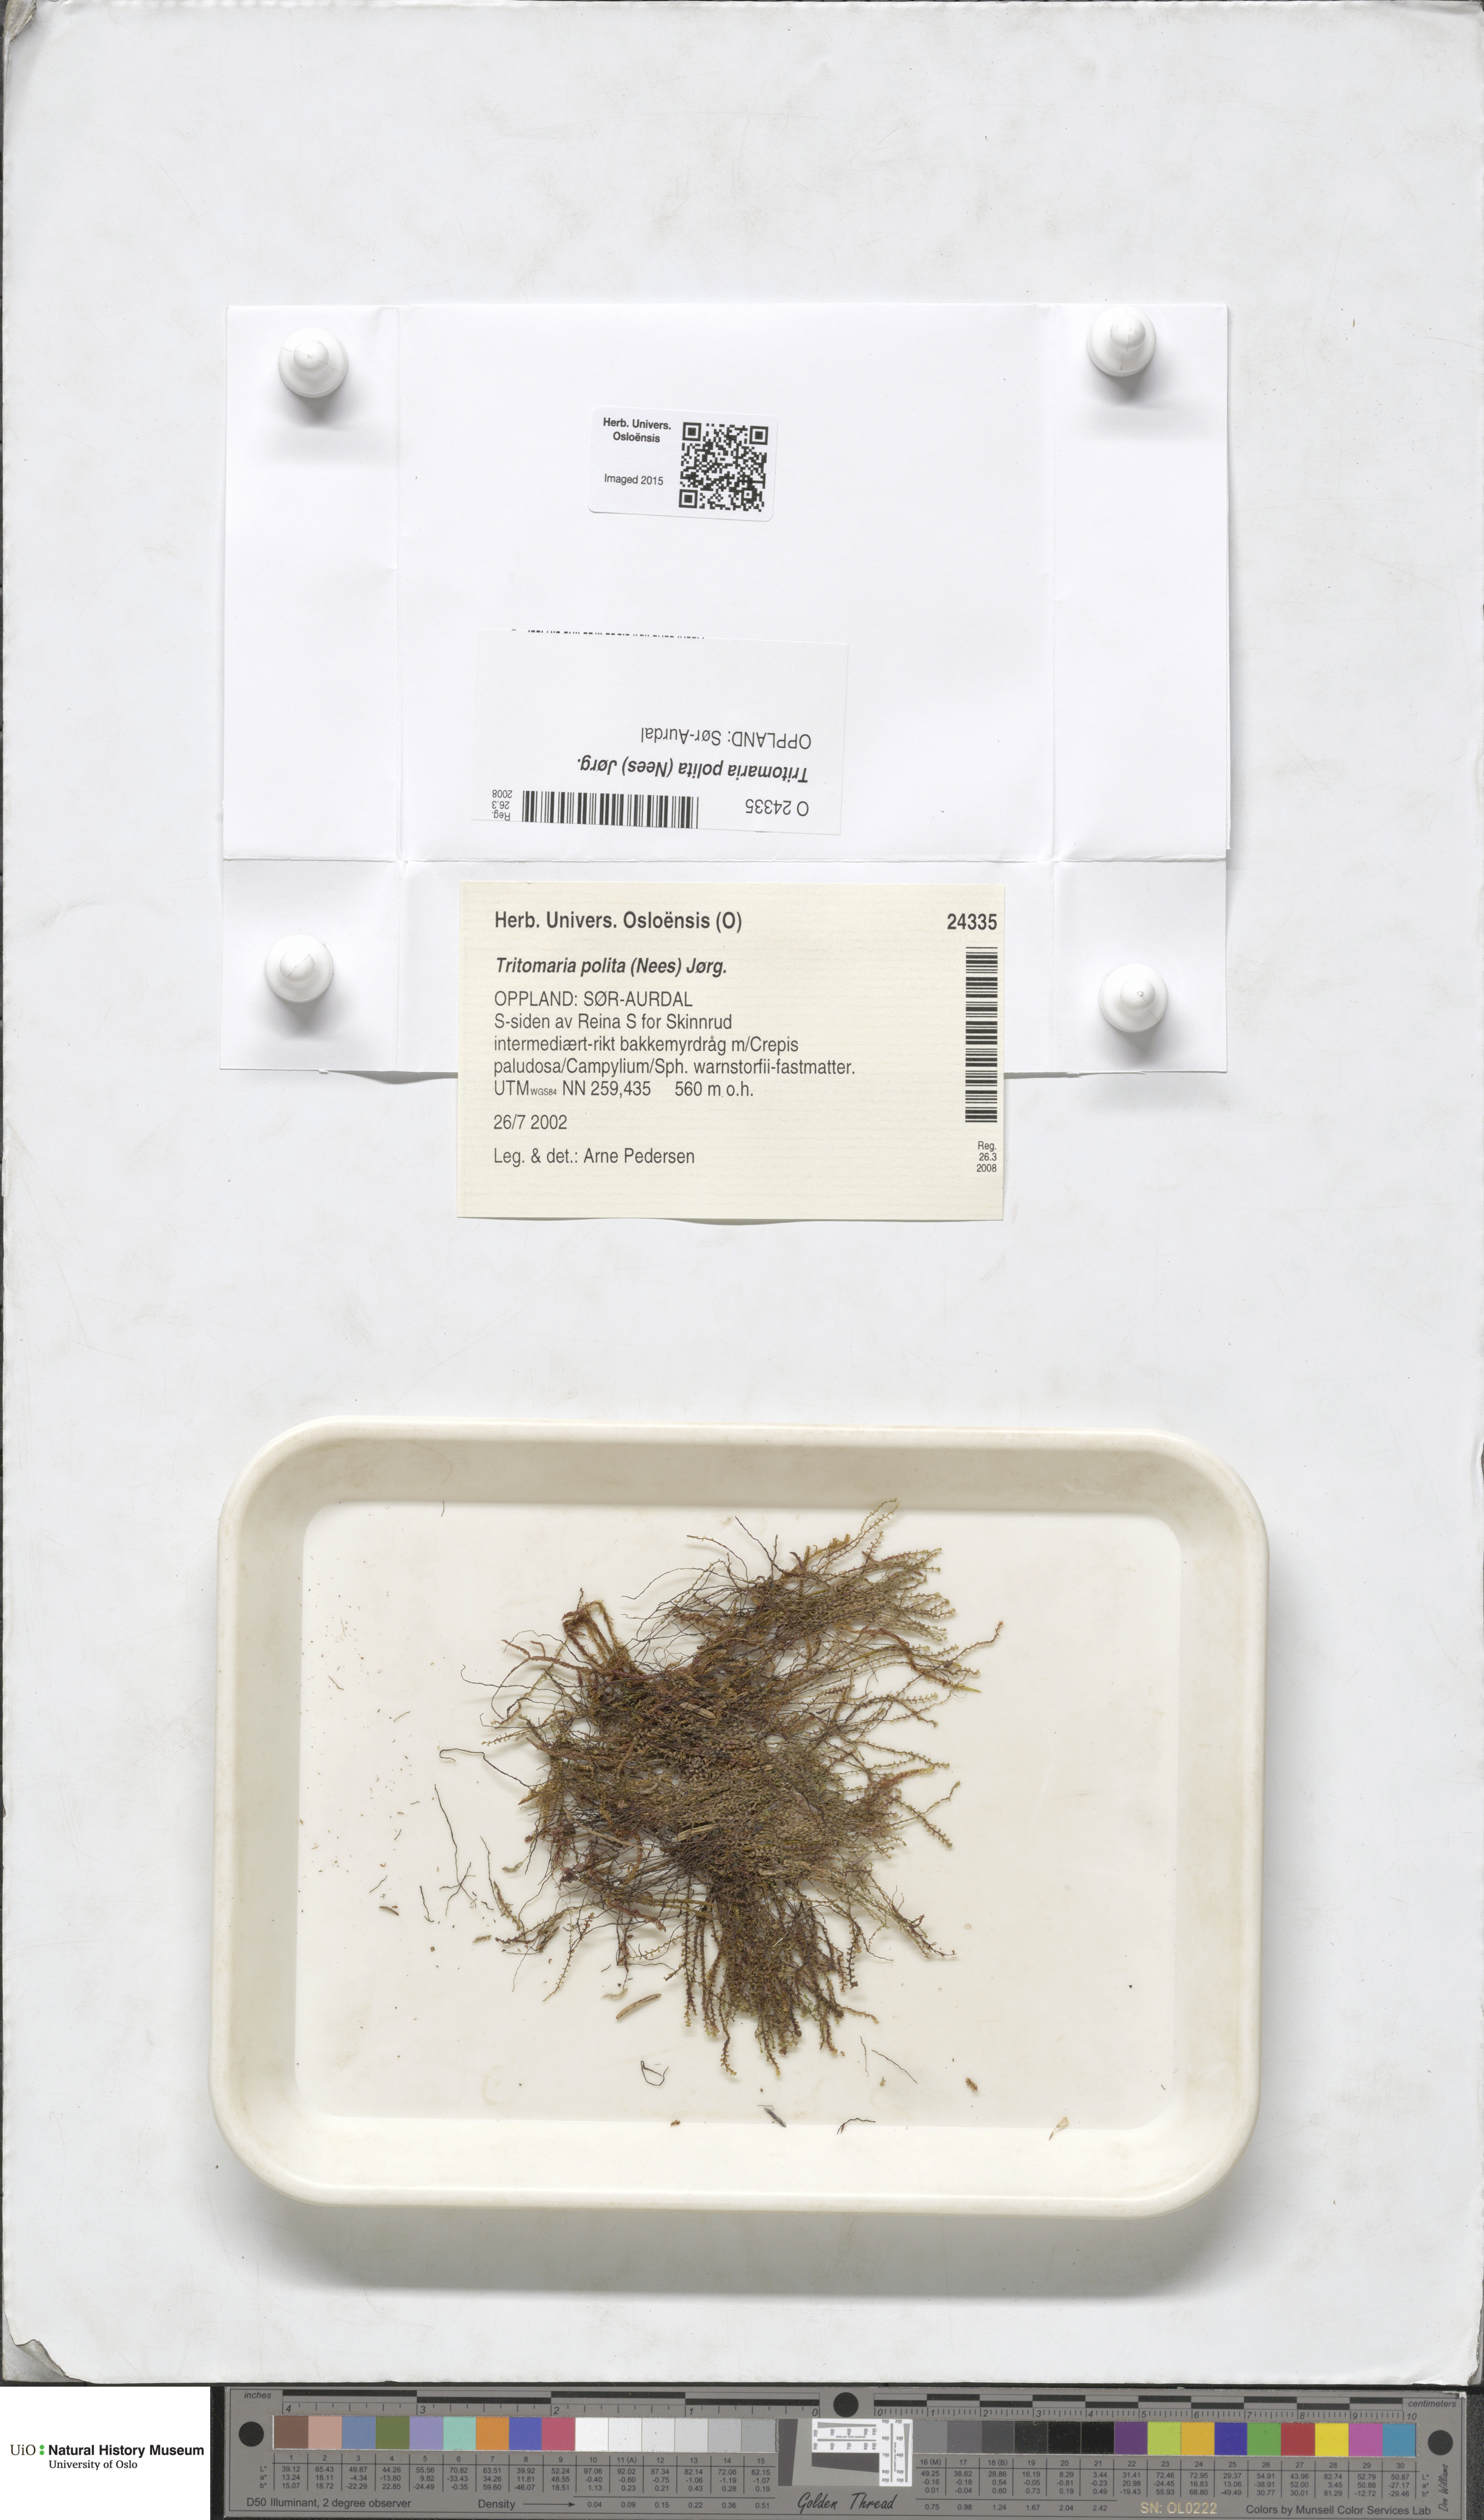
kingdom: Plantae
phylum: Marchantiophyta
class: Jungermanniopsida
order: Jungermanniales
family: Scapaniaceae
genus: Saccobasis
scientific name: Saccobasis polita
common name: Flush notchwort
